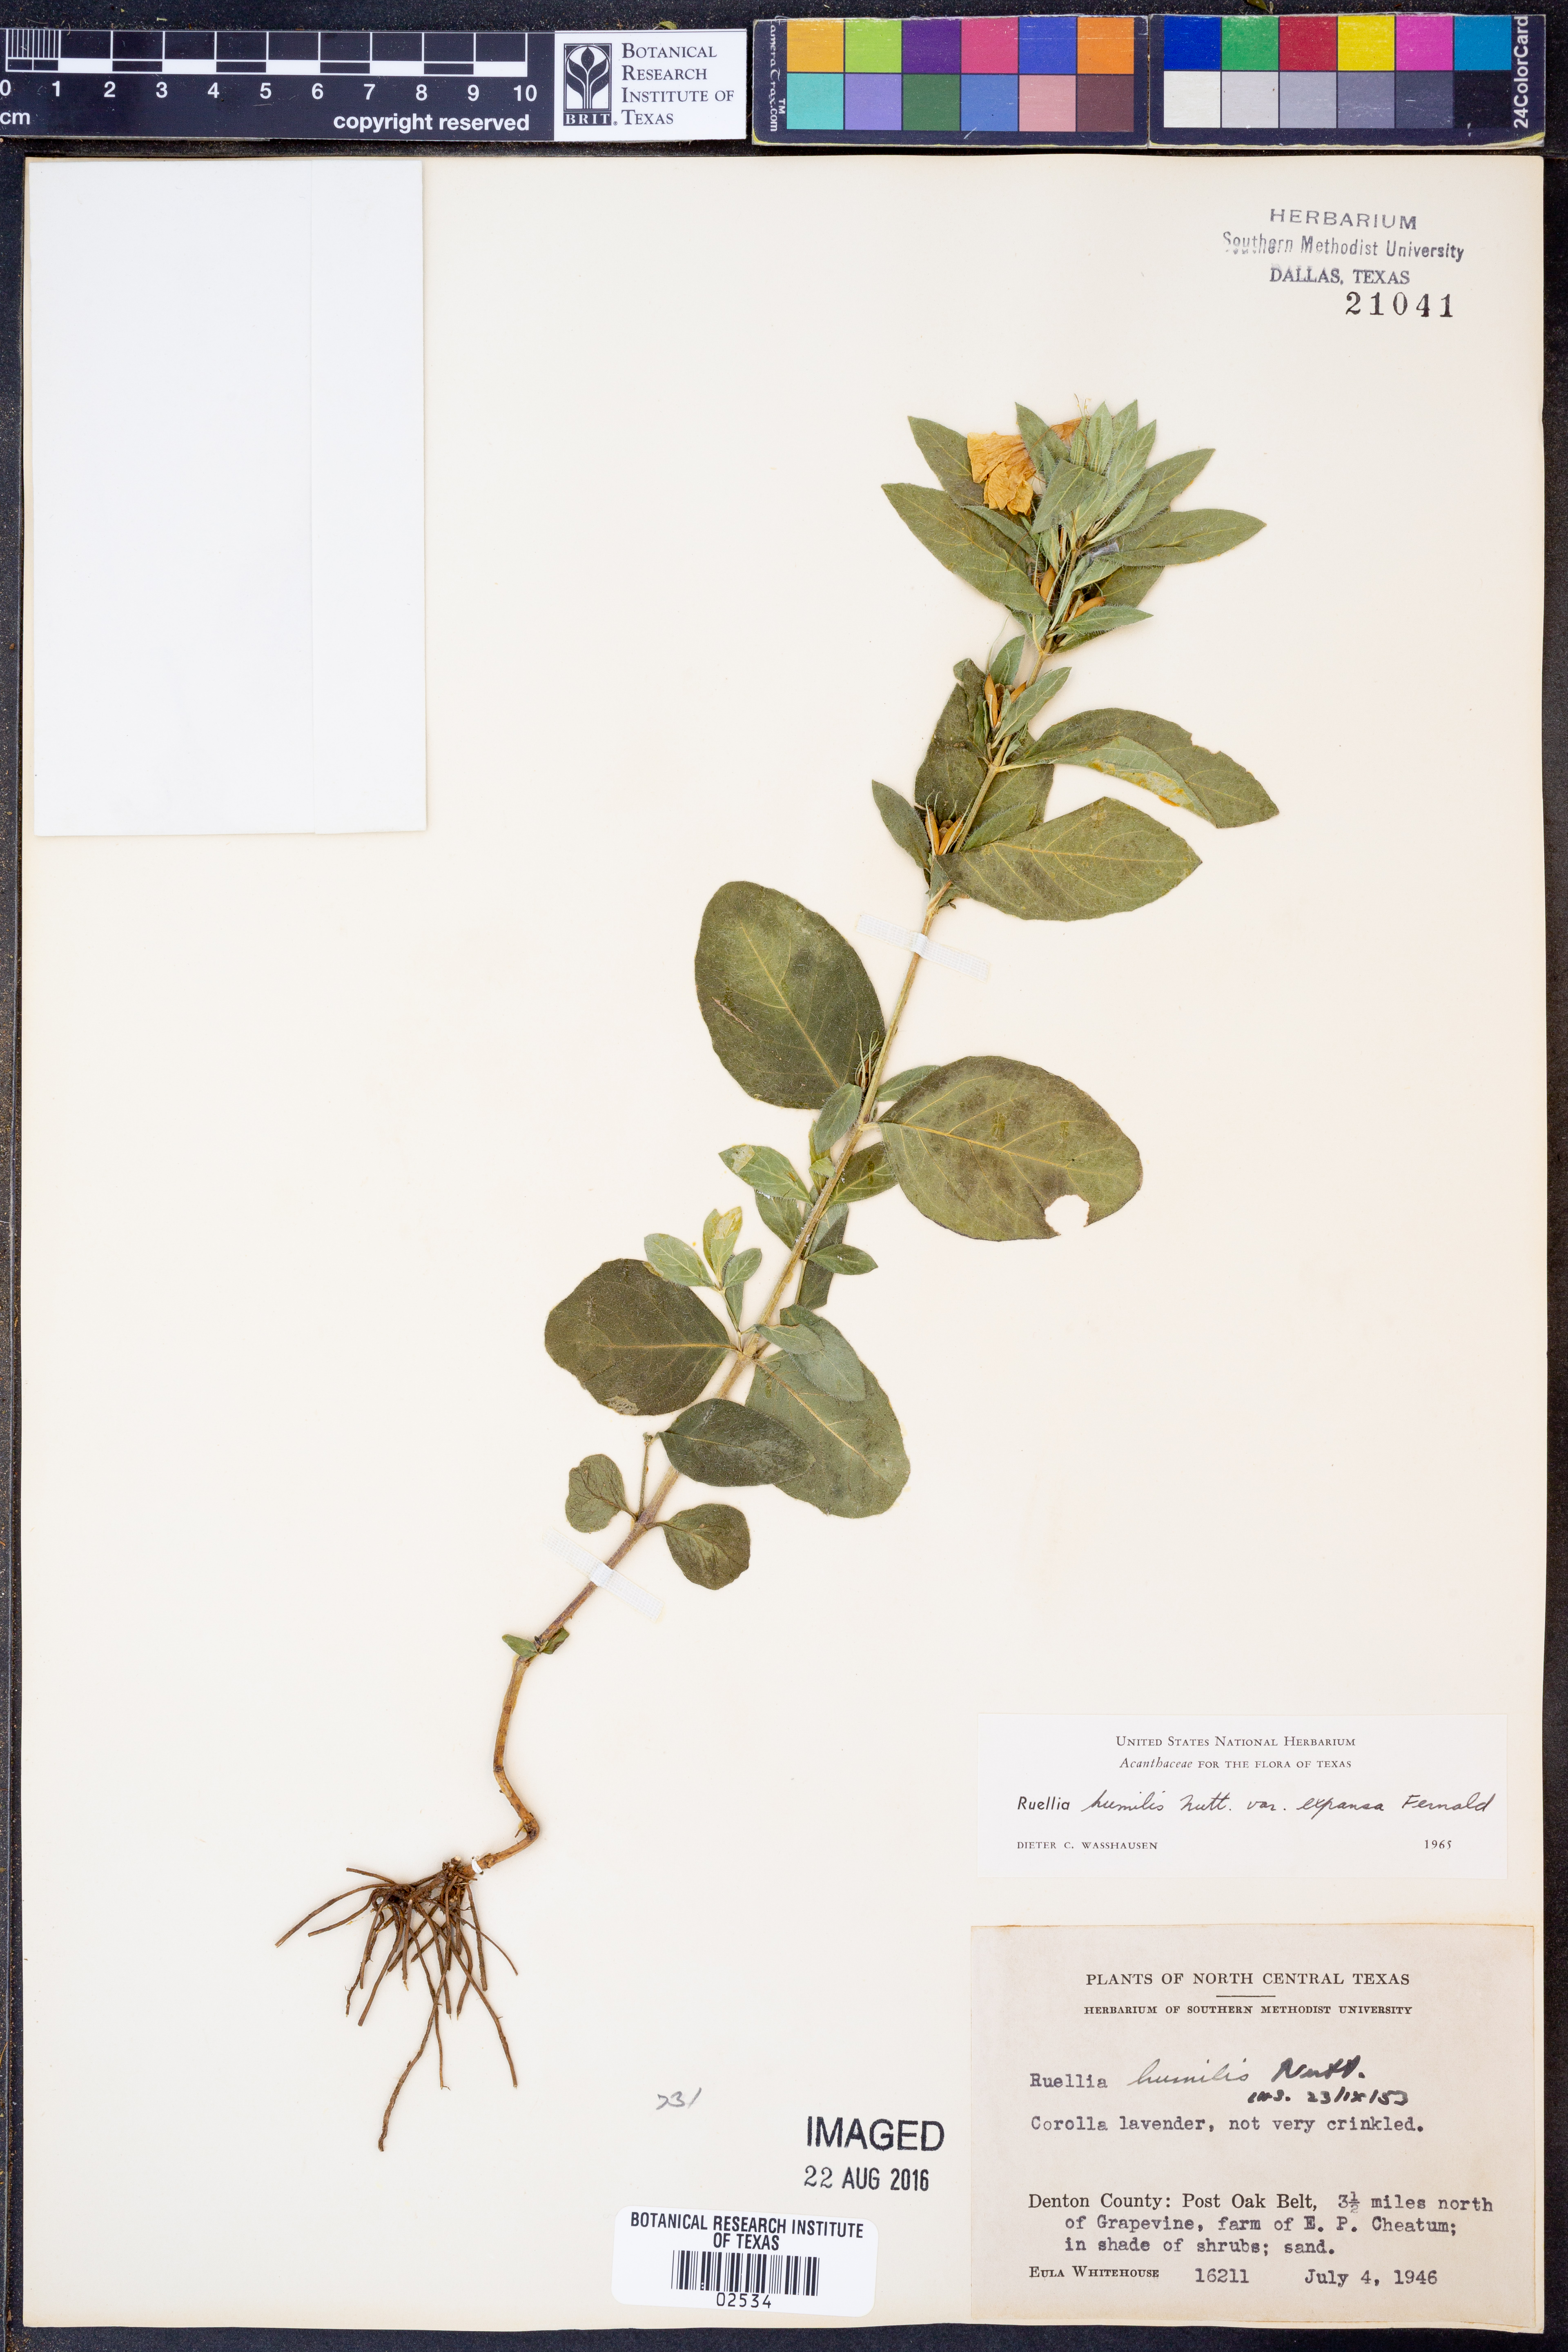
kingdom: Plantae
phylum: Tracheophyta
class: Magnoliopsida
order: Lamiales
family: Acanthaceae
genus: Ruellia
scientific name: Ruellia humilis
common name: Fringe-leaf ruellia
